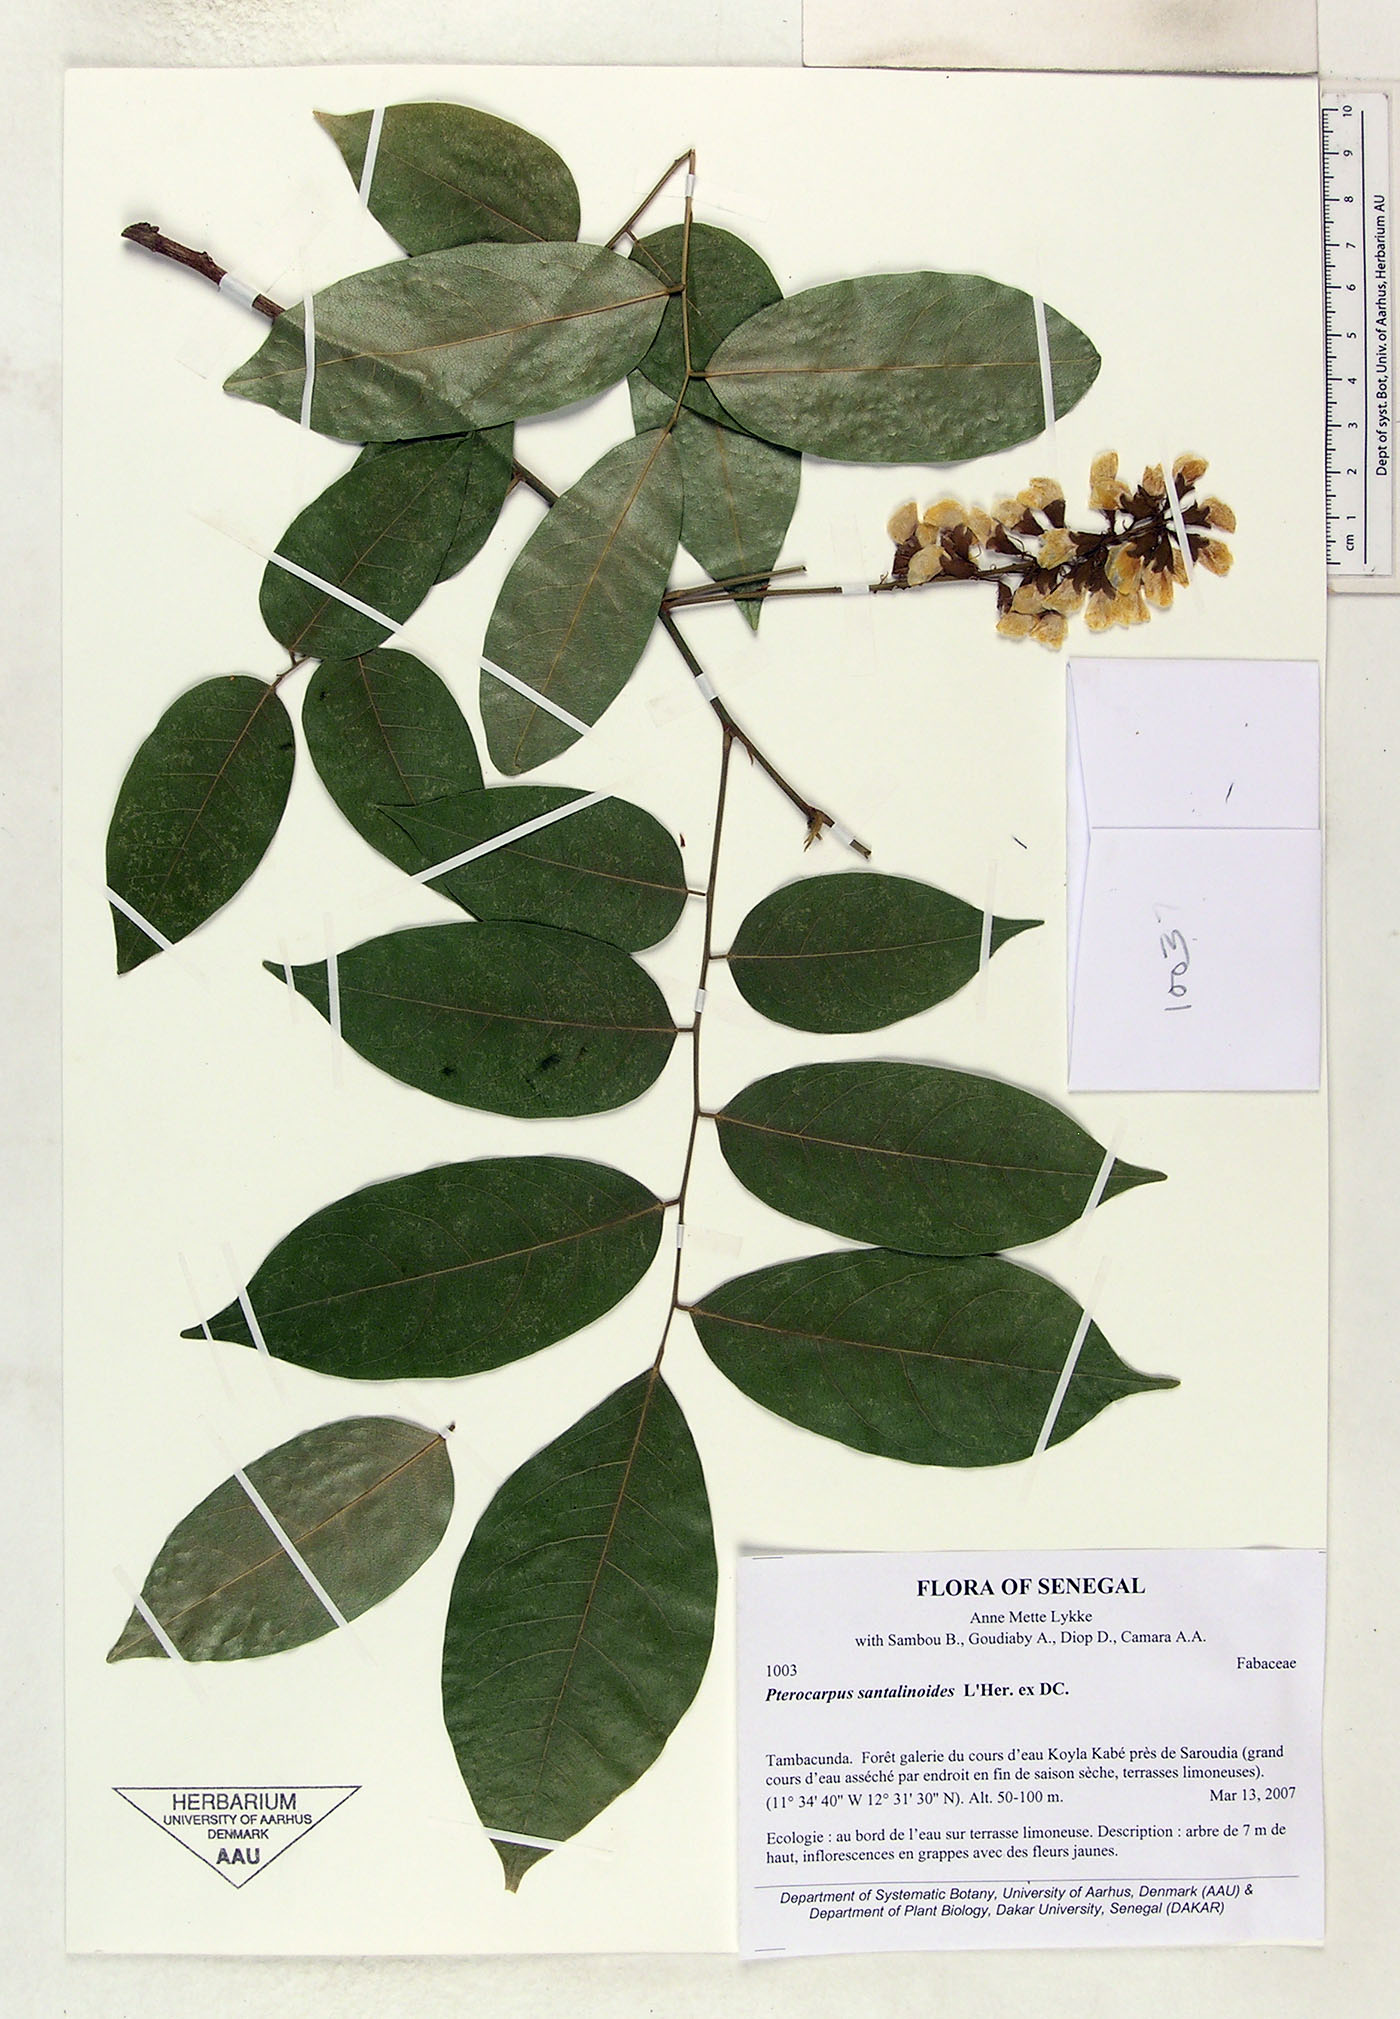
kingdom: Plantae
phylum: Tracheophyta
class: Magnoliopsida
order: Fabales
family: Fabaceae
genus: Pterocarpus
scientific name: Pterocarpus santalinoides
